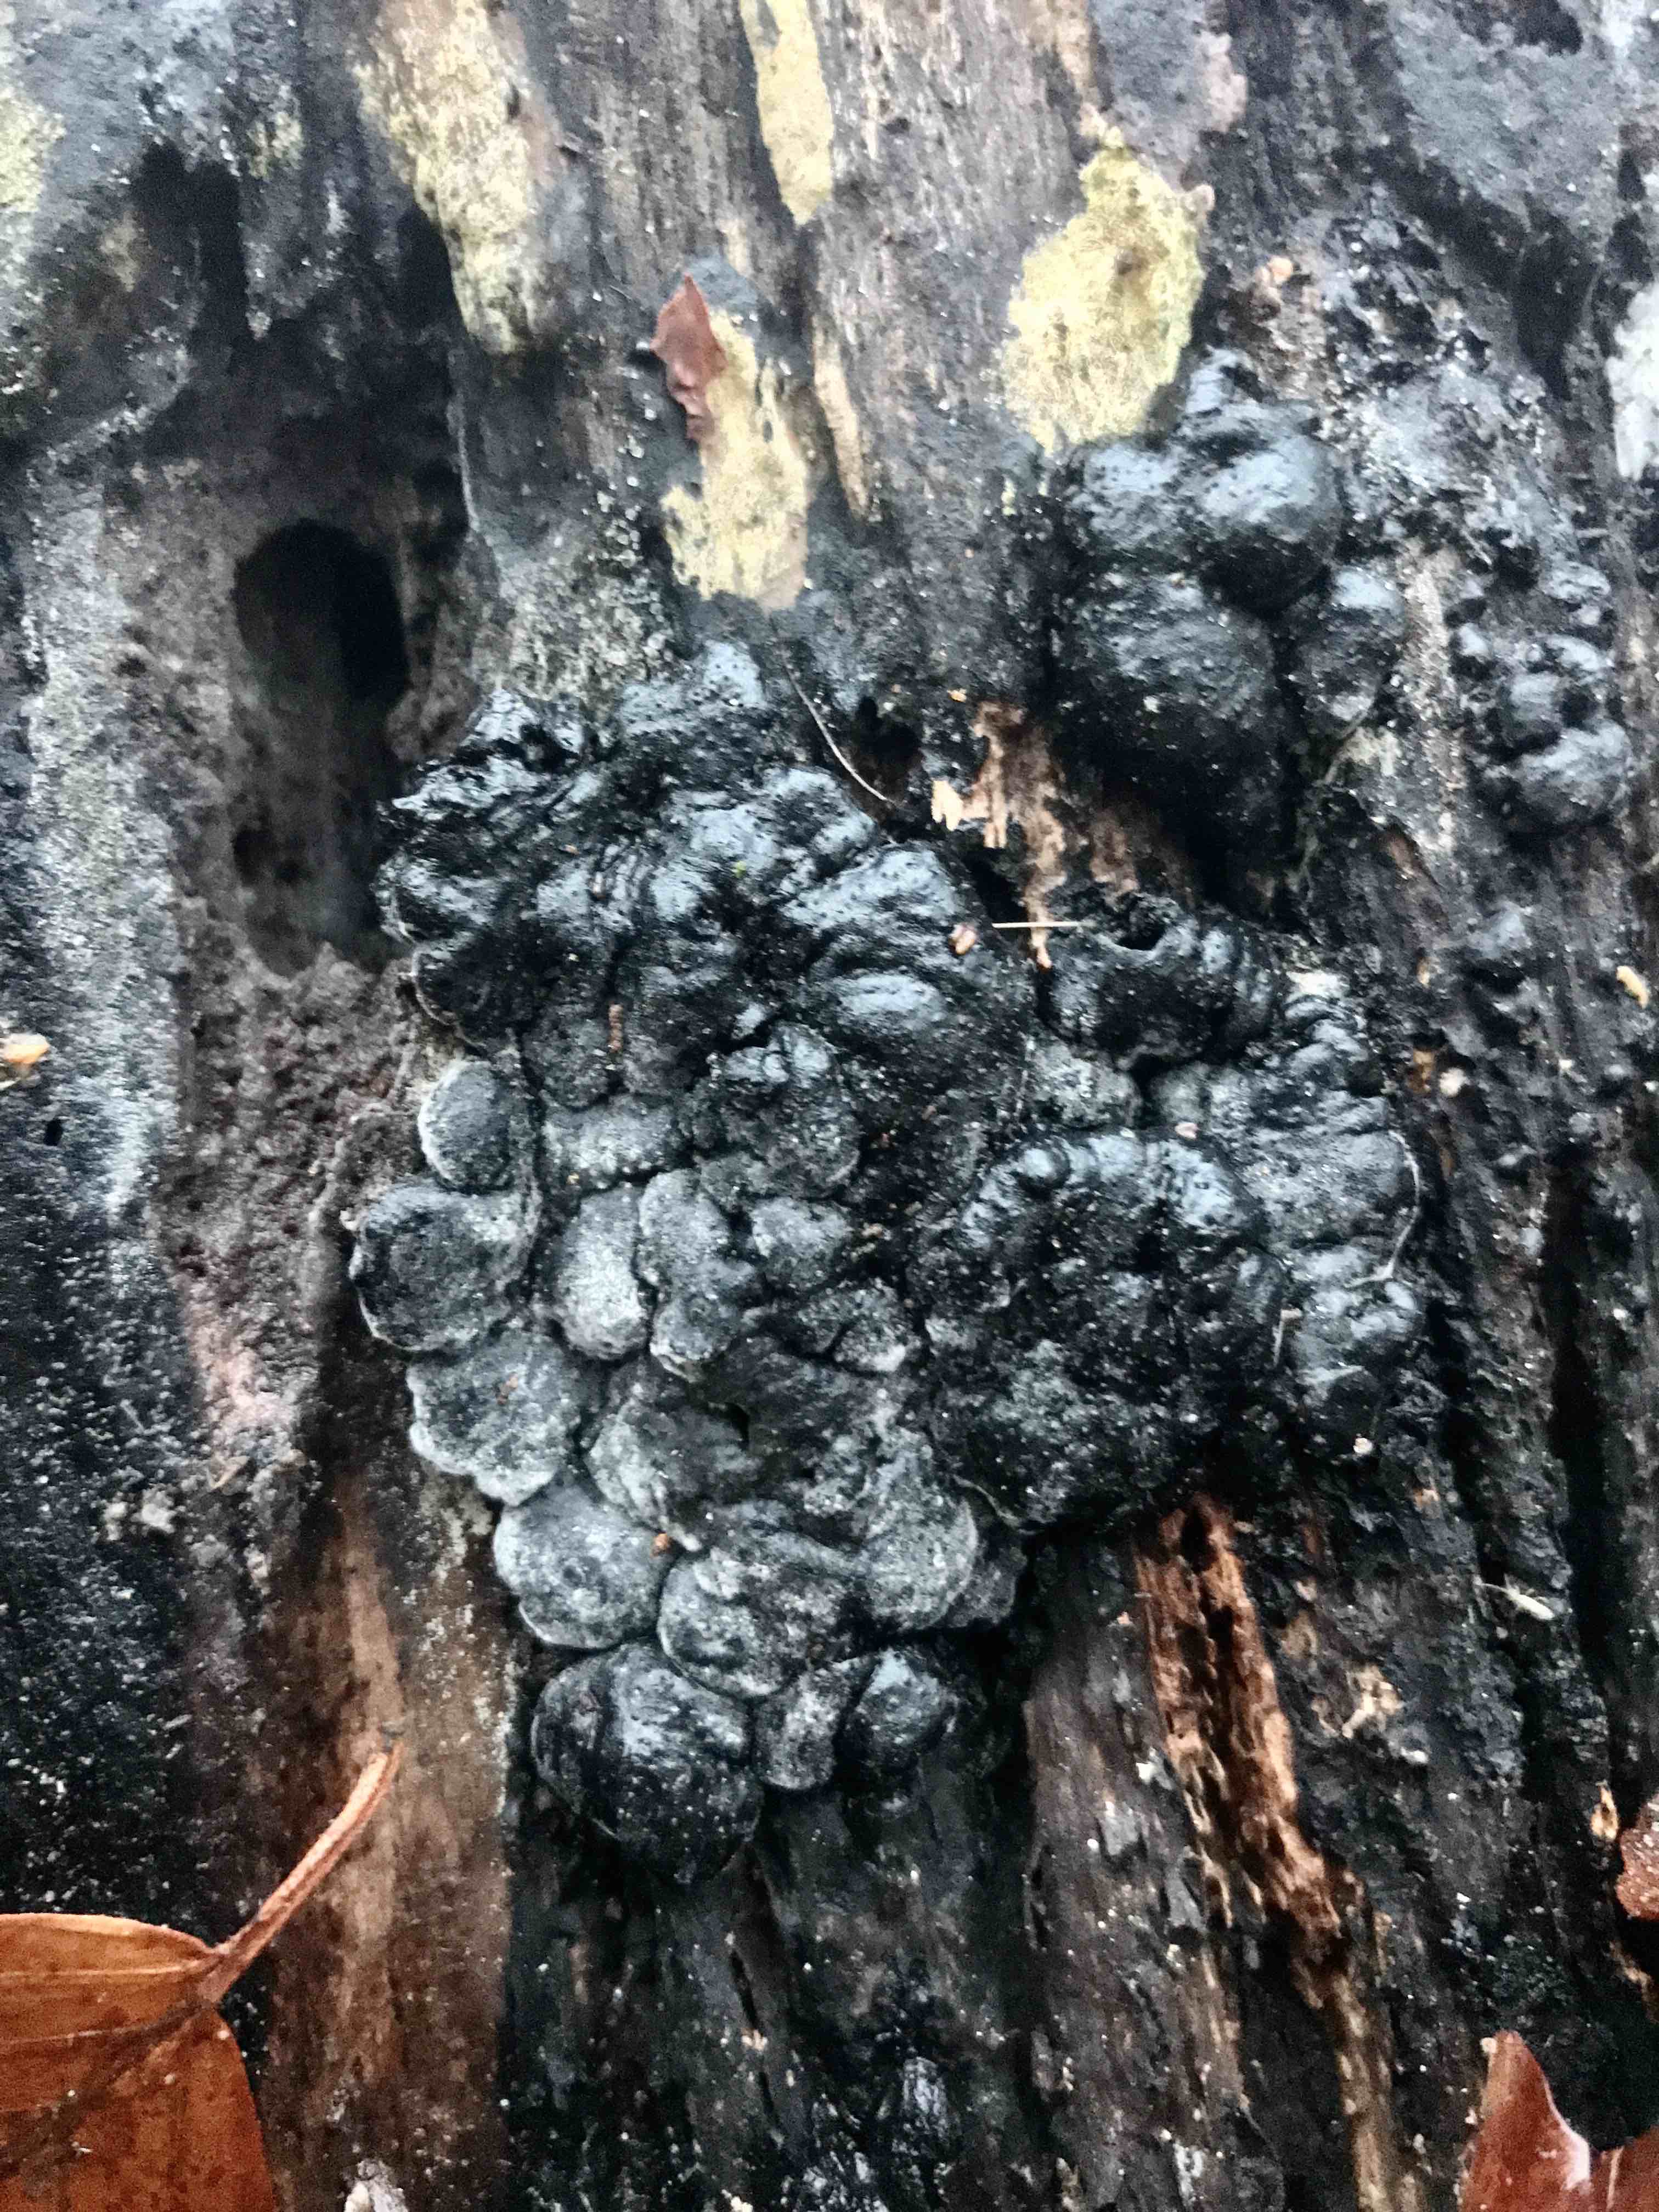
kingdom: Fungi
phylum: Ascomycota
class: Sordariomycetes
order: Xylariales
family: Xylariaceae
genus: Kretzschmaria
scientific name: Kretzschmaria deusta
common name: stor kulsvamp
